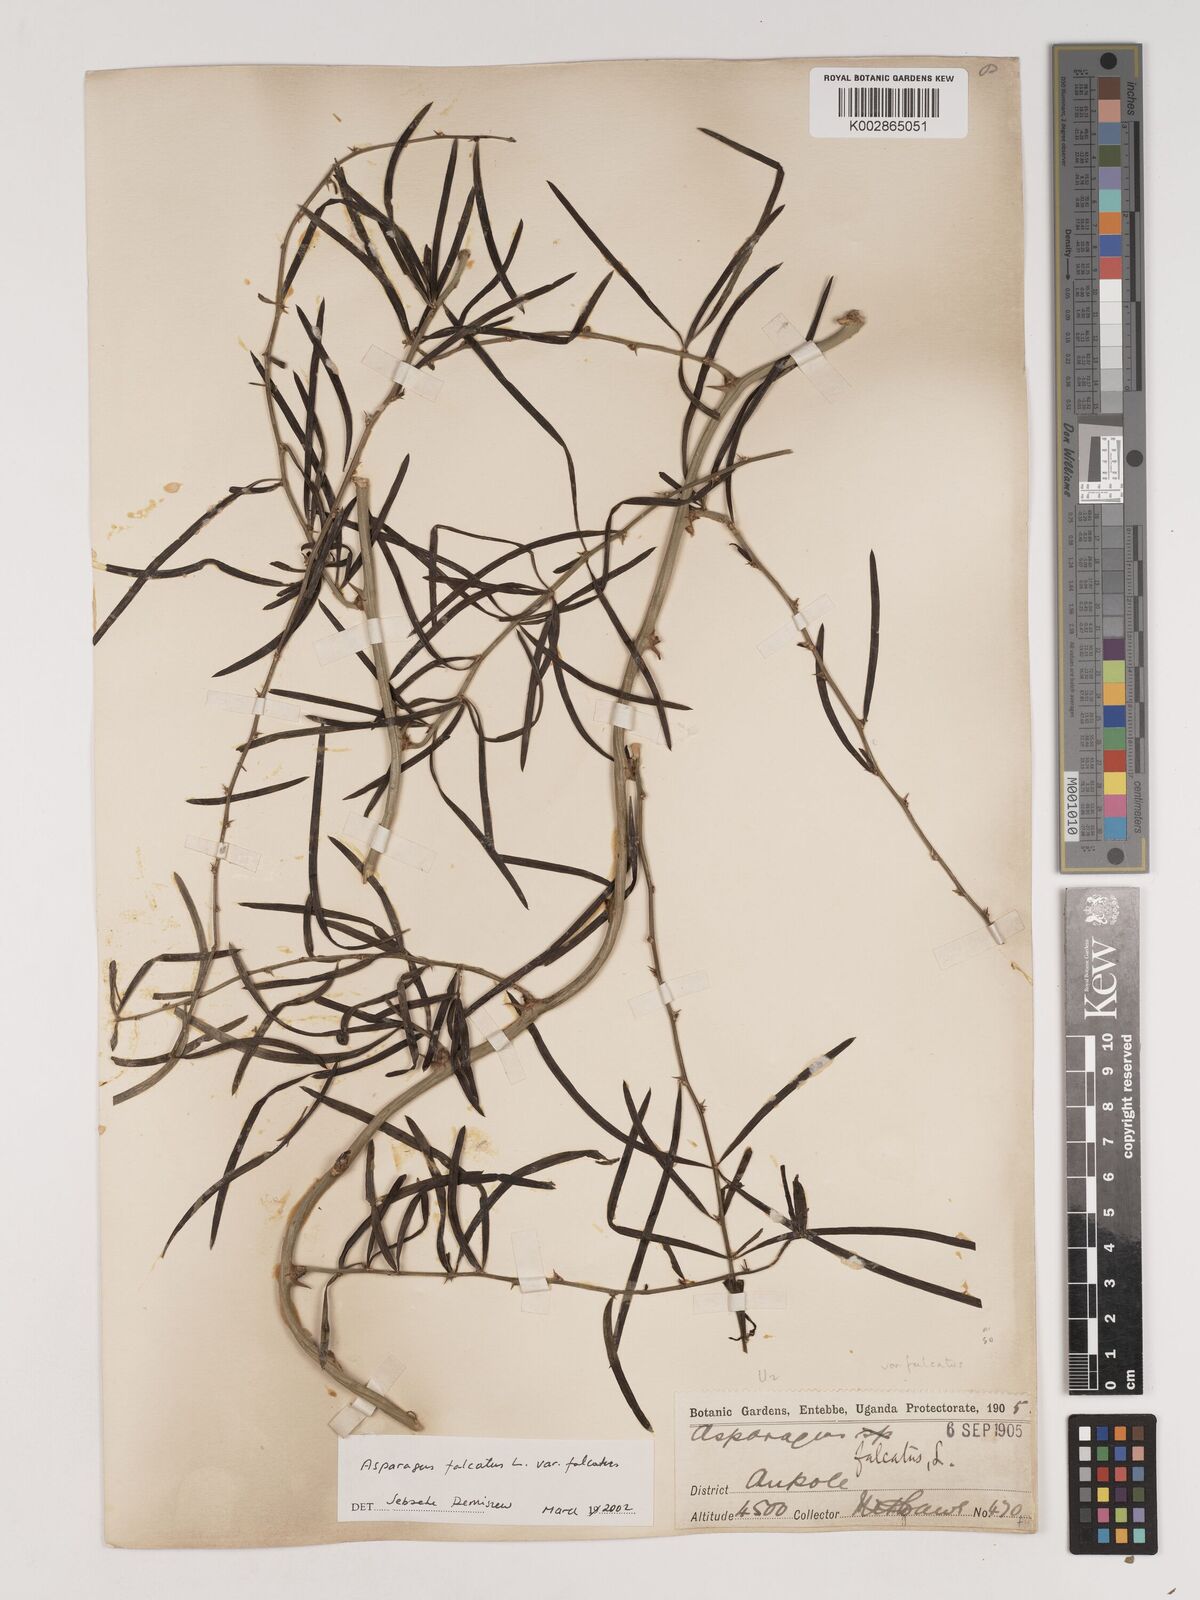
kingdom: Plantae
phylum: Tracheophyta
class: Liliopsida
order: Asparagales
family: Asparagaceae
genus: Asparagus
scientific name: Asparagus falcatus
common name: Asparagus
